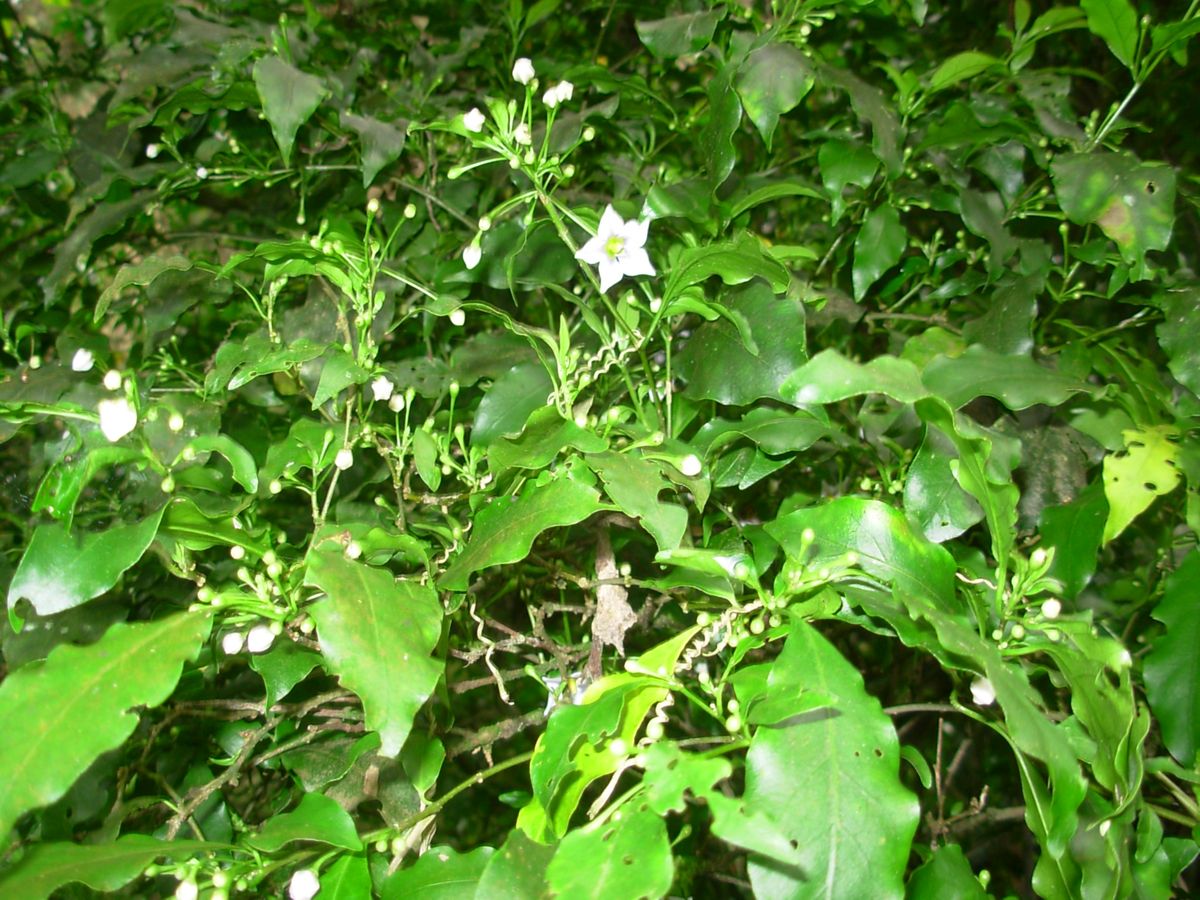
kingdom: Plantae
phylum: Tracheophyta
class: Magnoliopsida
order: Solanales
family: Solanaceae
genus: Lycianthes
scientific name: Lycianthes orogenes
